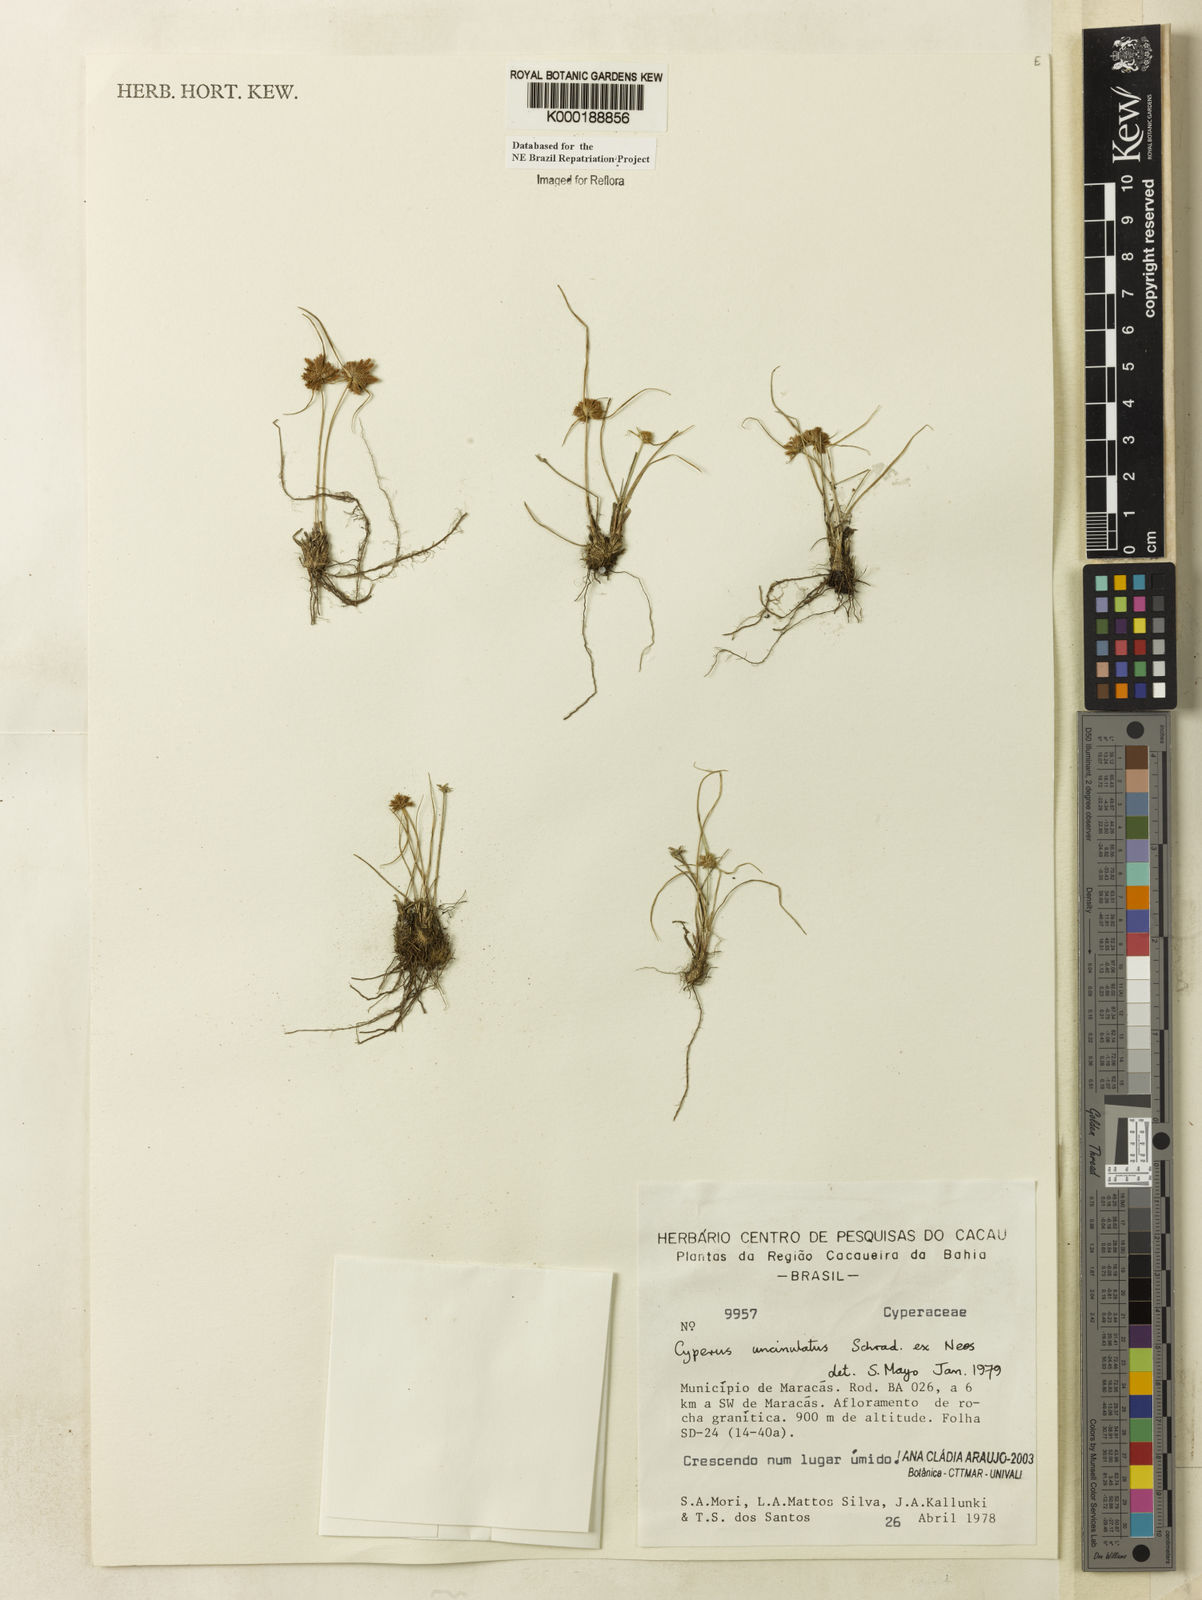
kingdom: Plantae
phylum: Tracheophyta
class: Liliopsida
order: Poales
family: Cyperaceae
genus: Cyperus
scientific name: Cyperus uncinulatus
